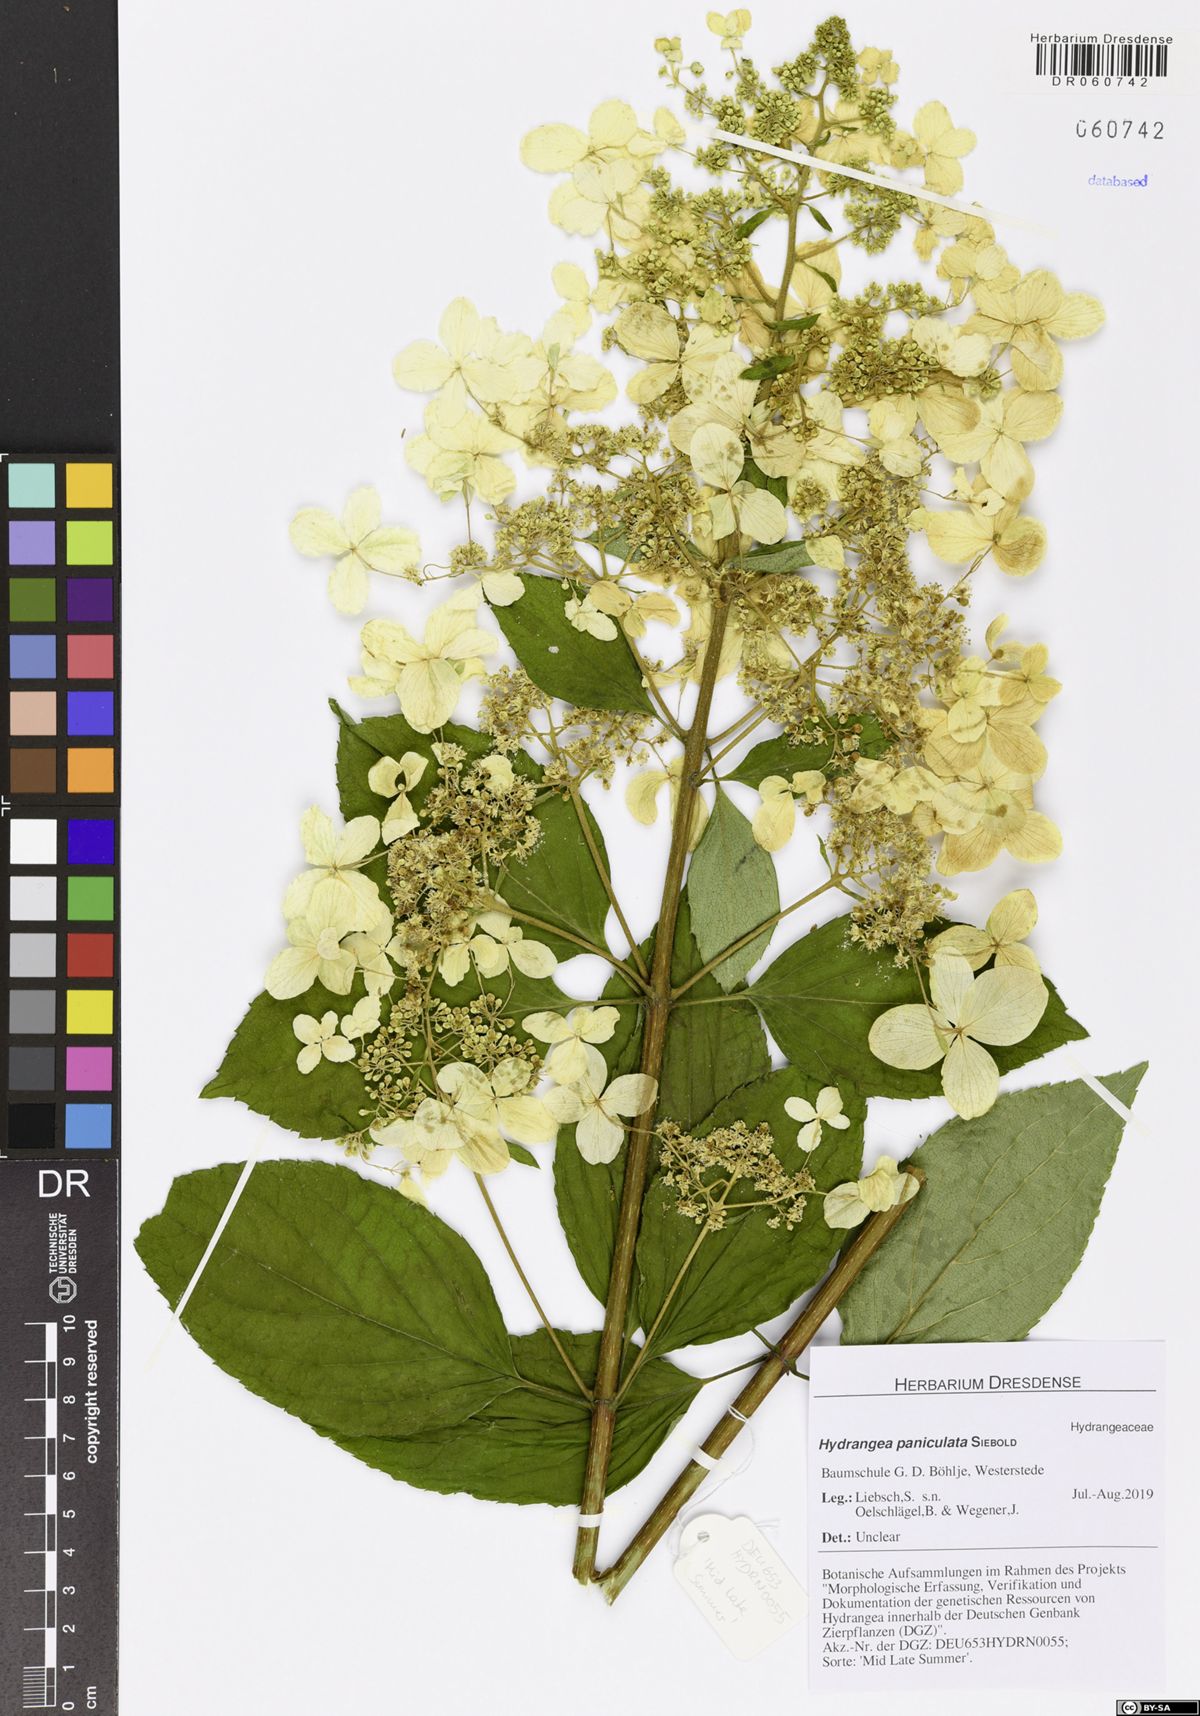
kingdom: Plantae
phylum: Tracheophyta
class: Magnoliopsida
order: Cornales
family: Hydrangeaceae
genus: Hydrangea
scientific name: Hydrangea paniculata
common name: Panicled hydrangea
